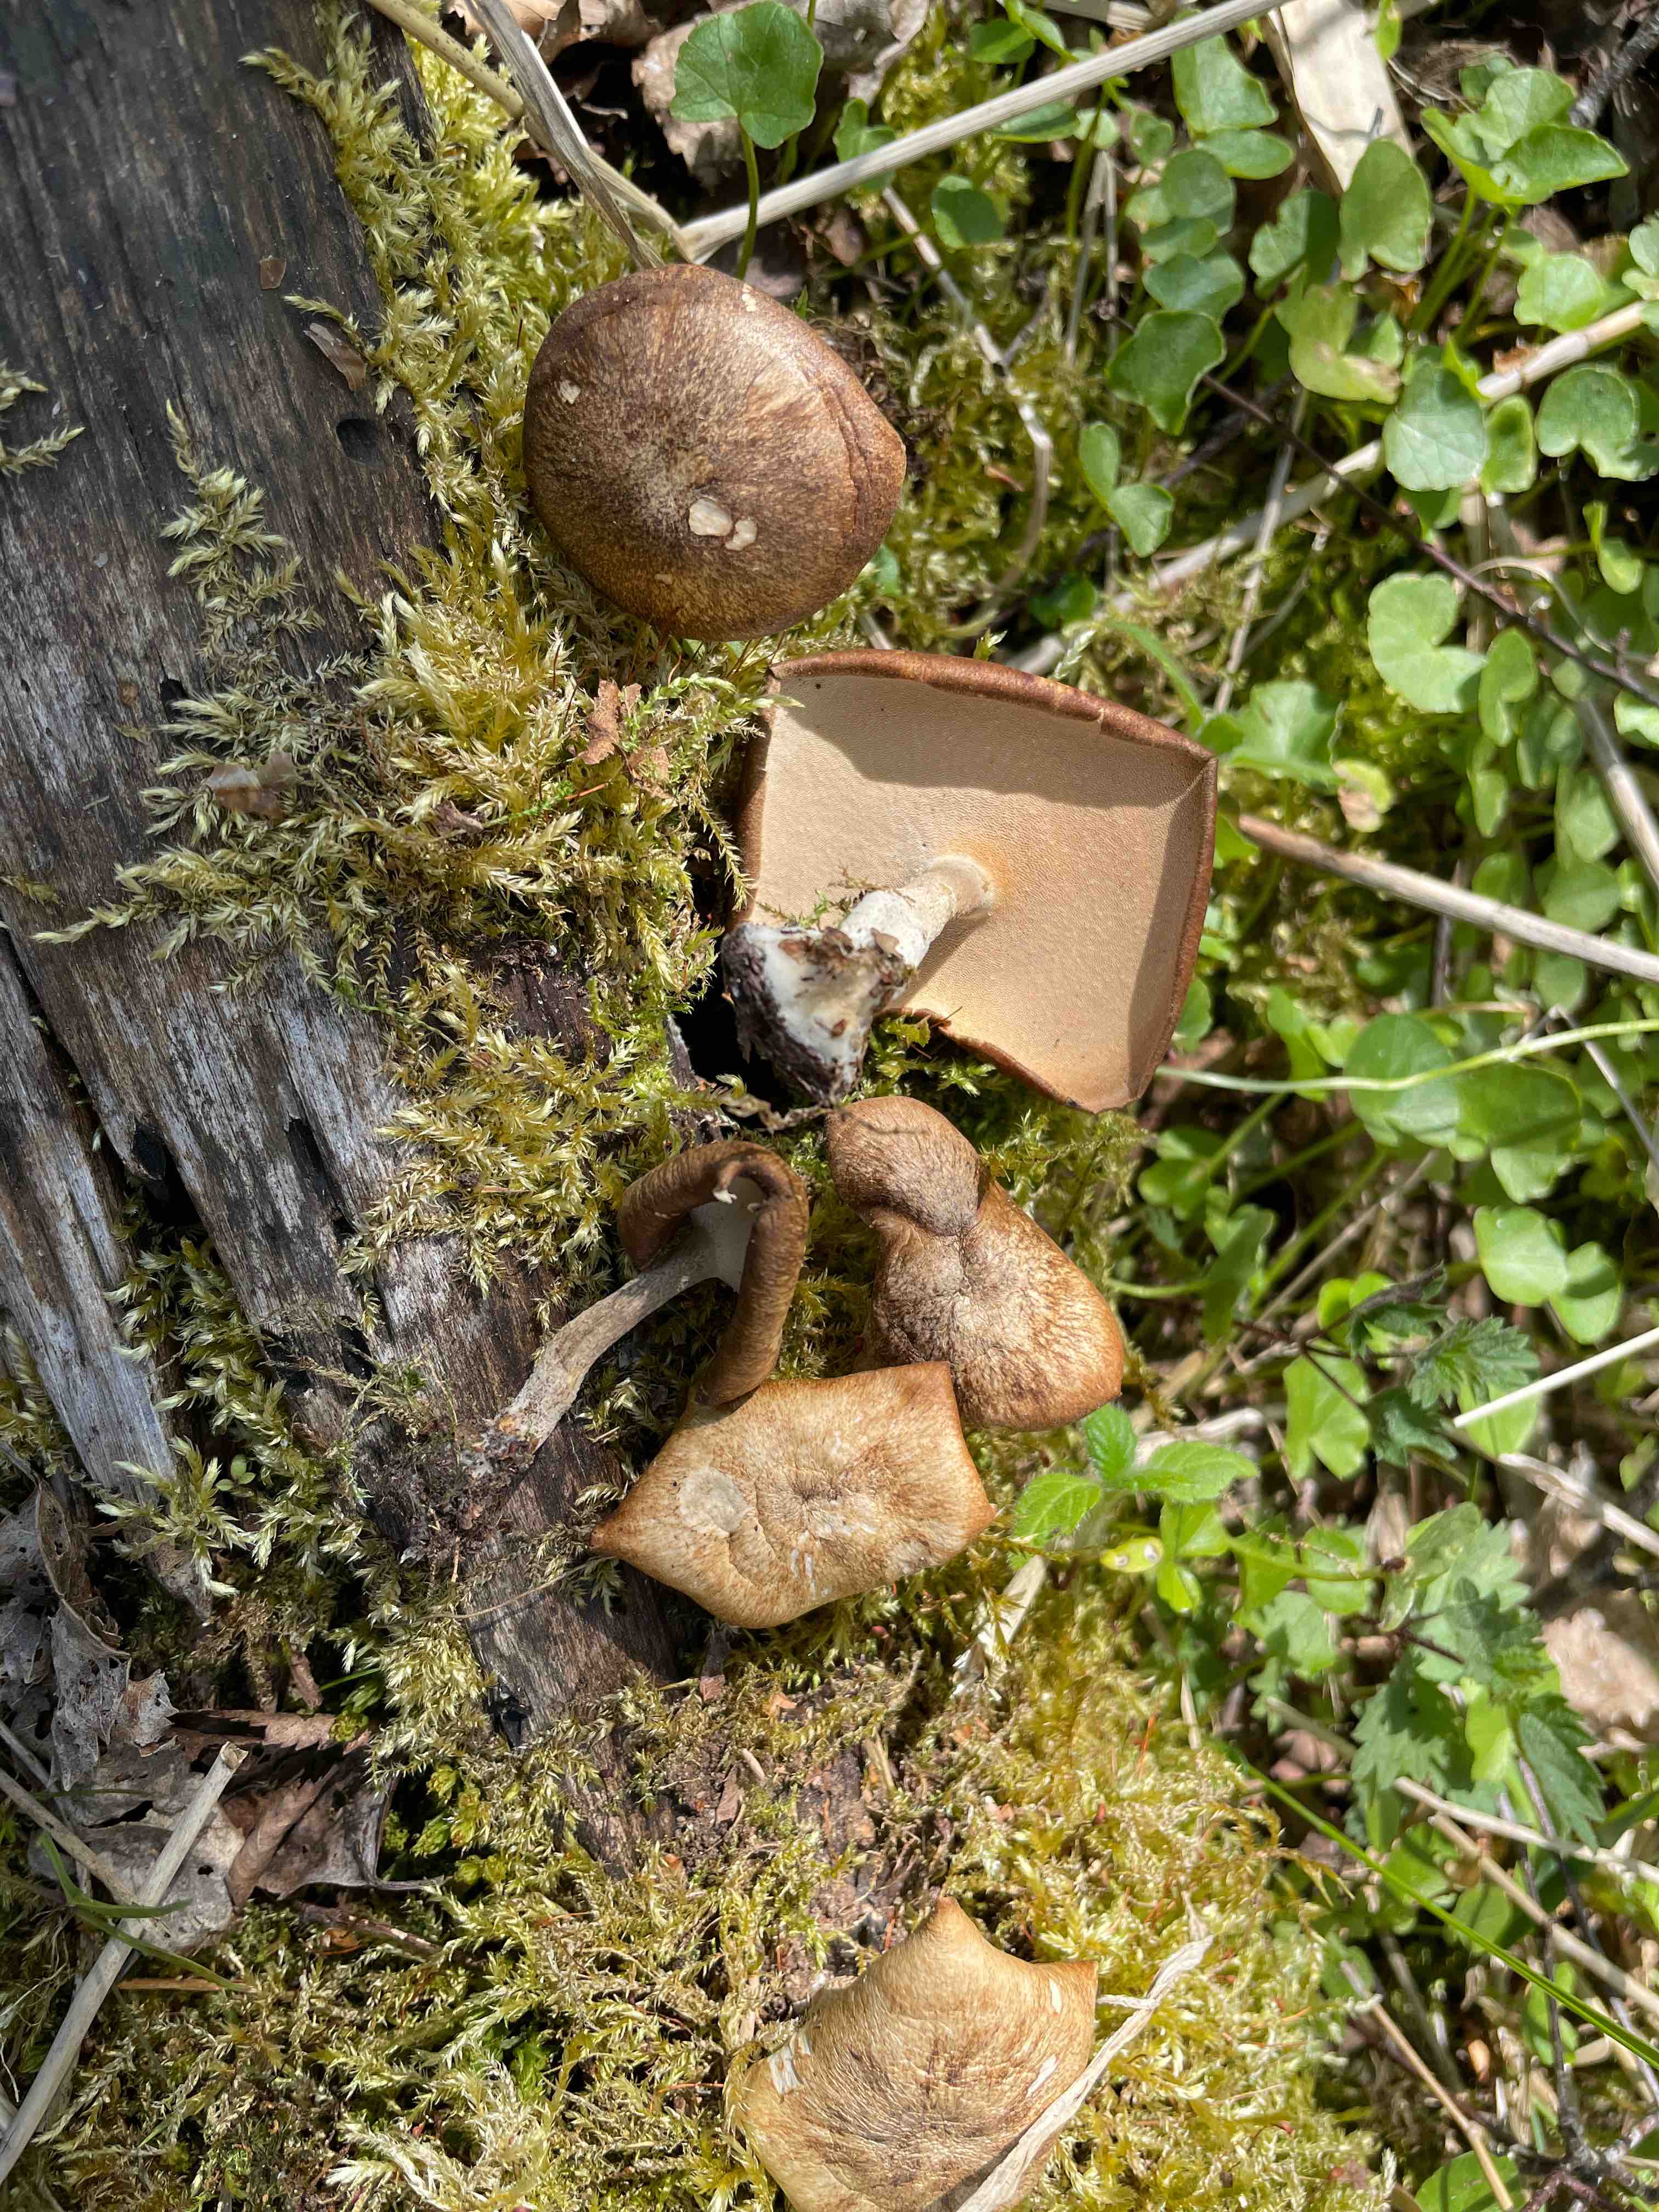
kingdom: Fungi
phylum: Basidiomycota
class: Agaricomycetes
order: Polyporales
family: Polyporaceae
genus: Lentinus
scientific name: Lentinus substrictus
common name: forårs-stilkporesvamp
